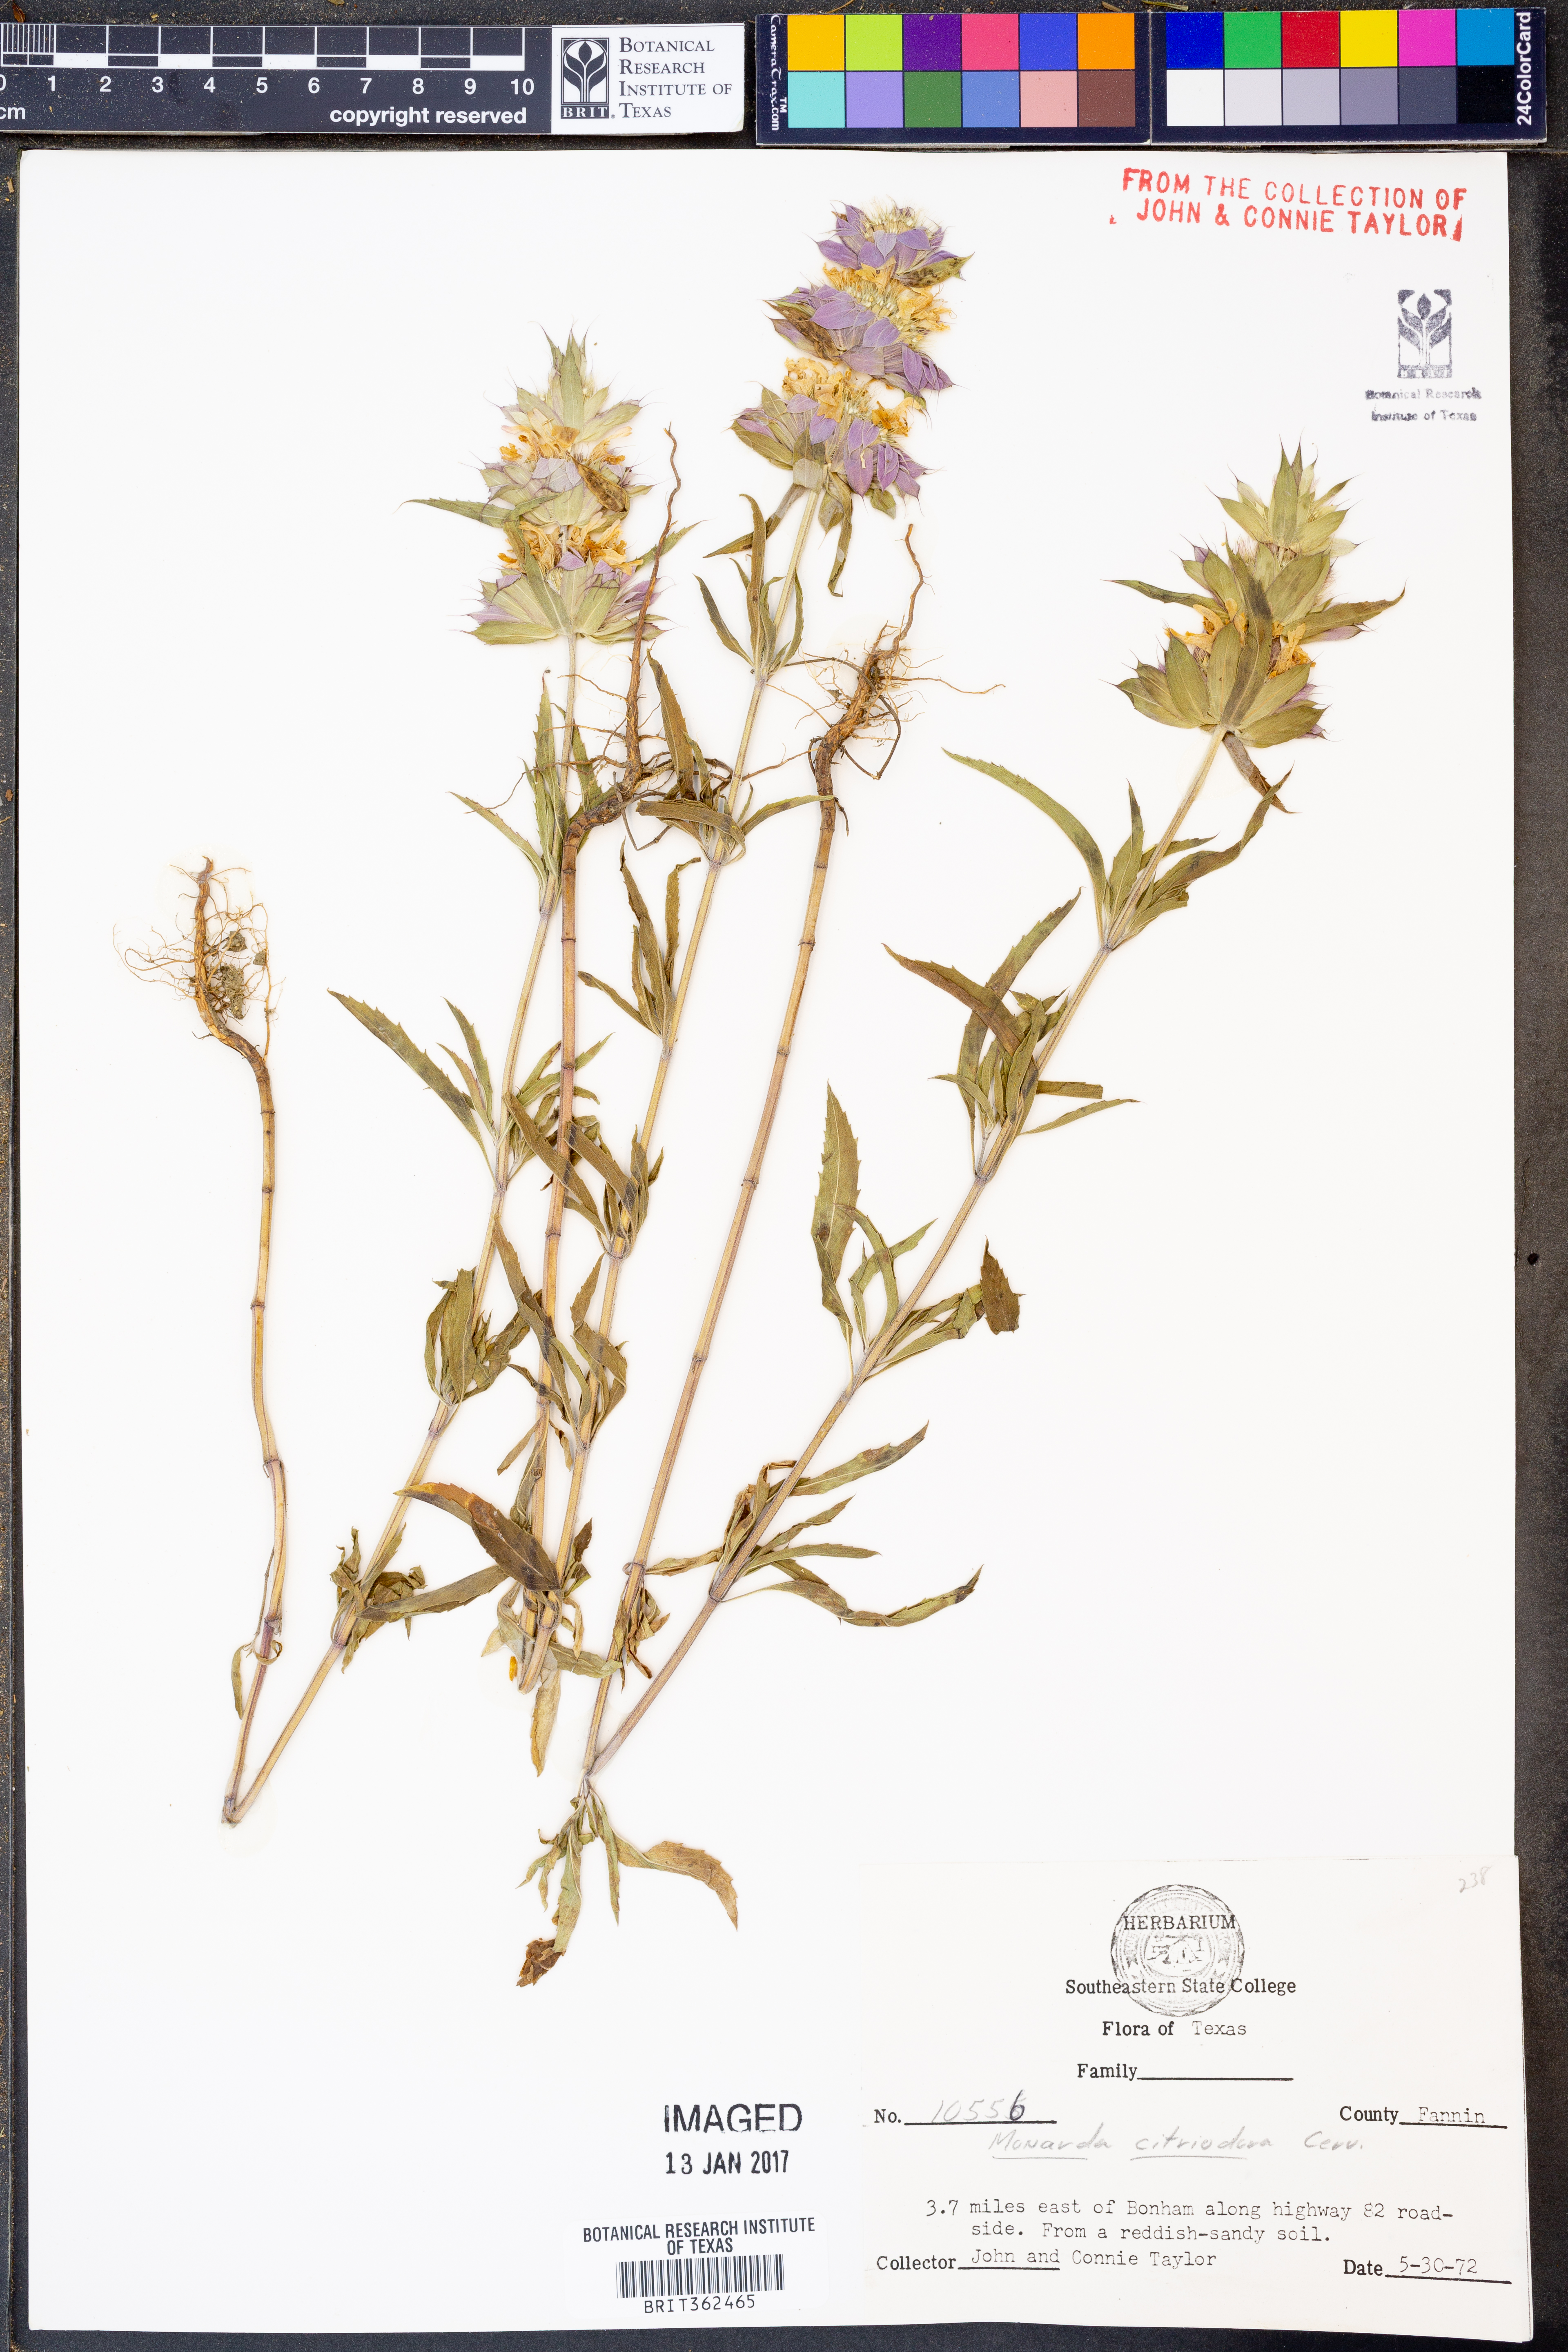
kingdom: Plantae
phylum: Tracheophyta
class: Magnoliopsida
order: Lamiales
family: Lamiaceae
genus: Monarda
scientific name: Monarda citriodora
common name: Lemon beebalm
